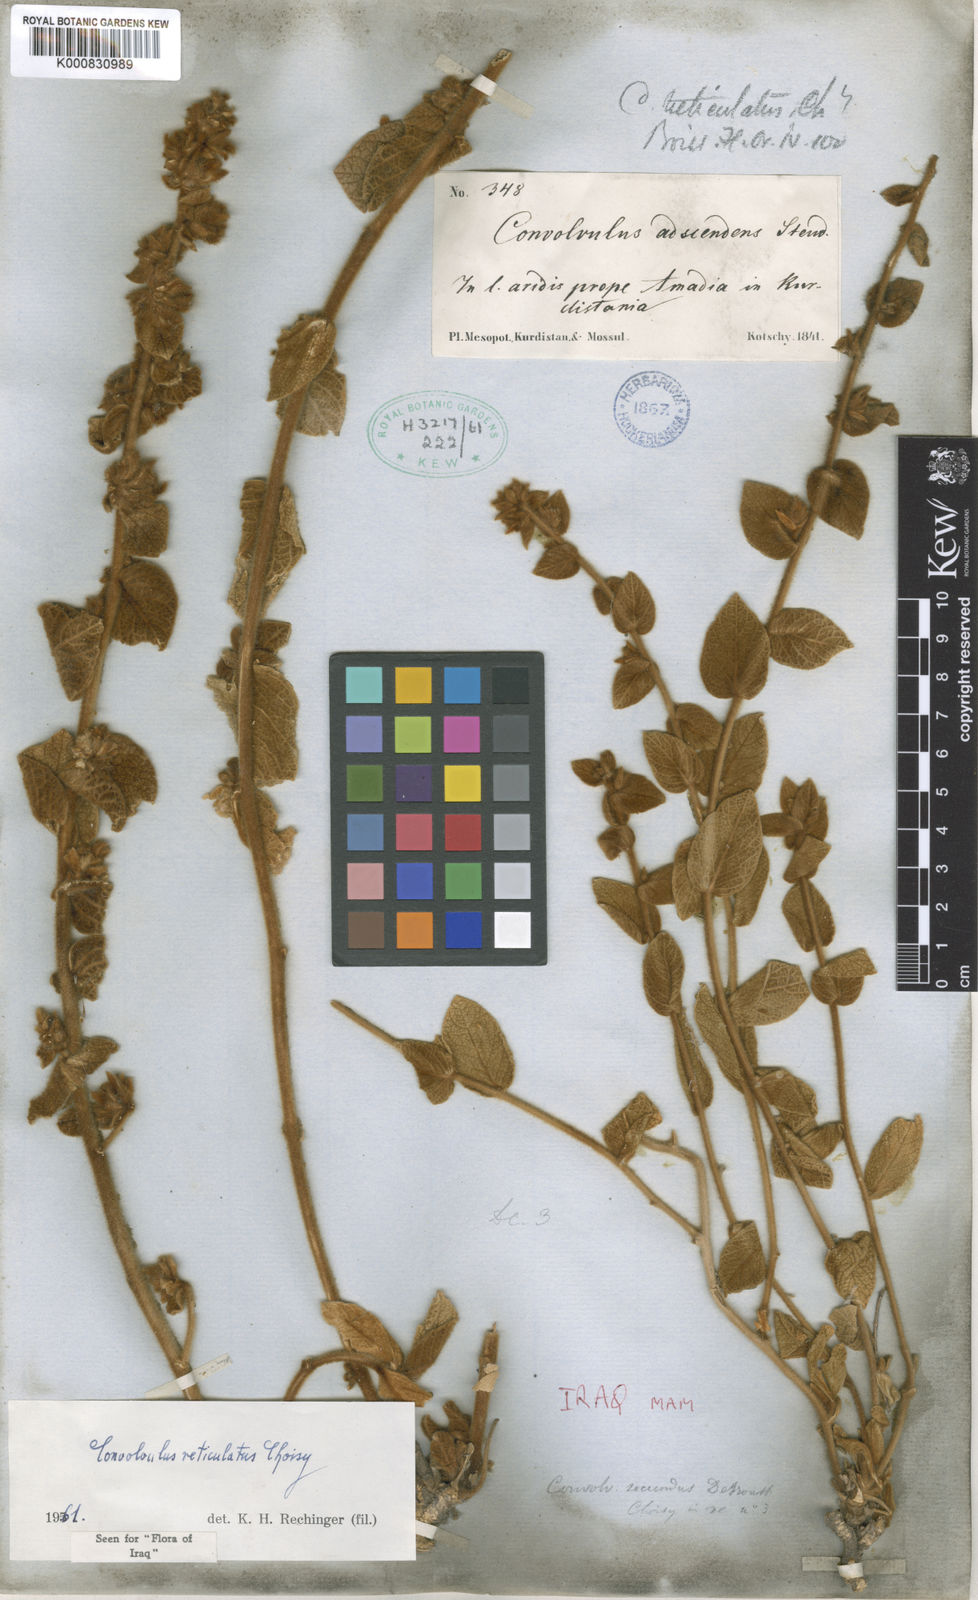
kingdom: Plantae
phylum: Tracheophyta
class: Magnoliopsida
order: Solanales
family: Convolvulaceae
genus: Convolvulus
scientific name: Convolvulus reticulatus
